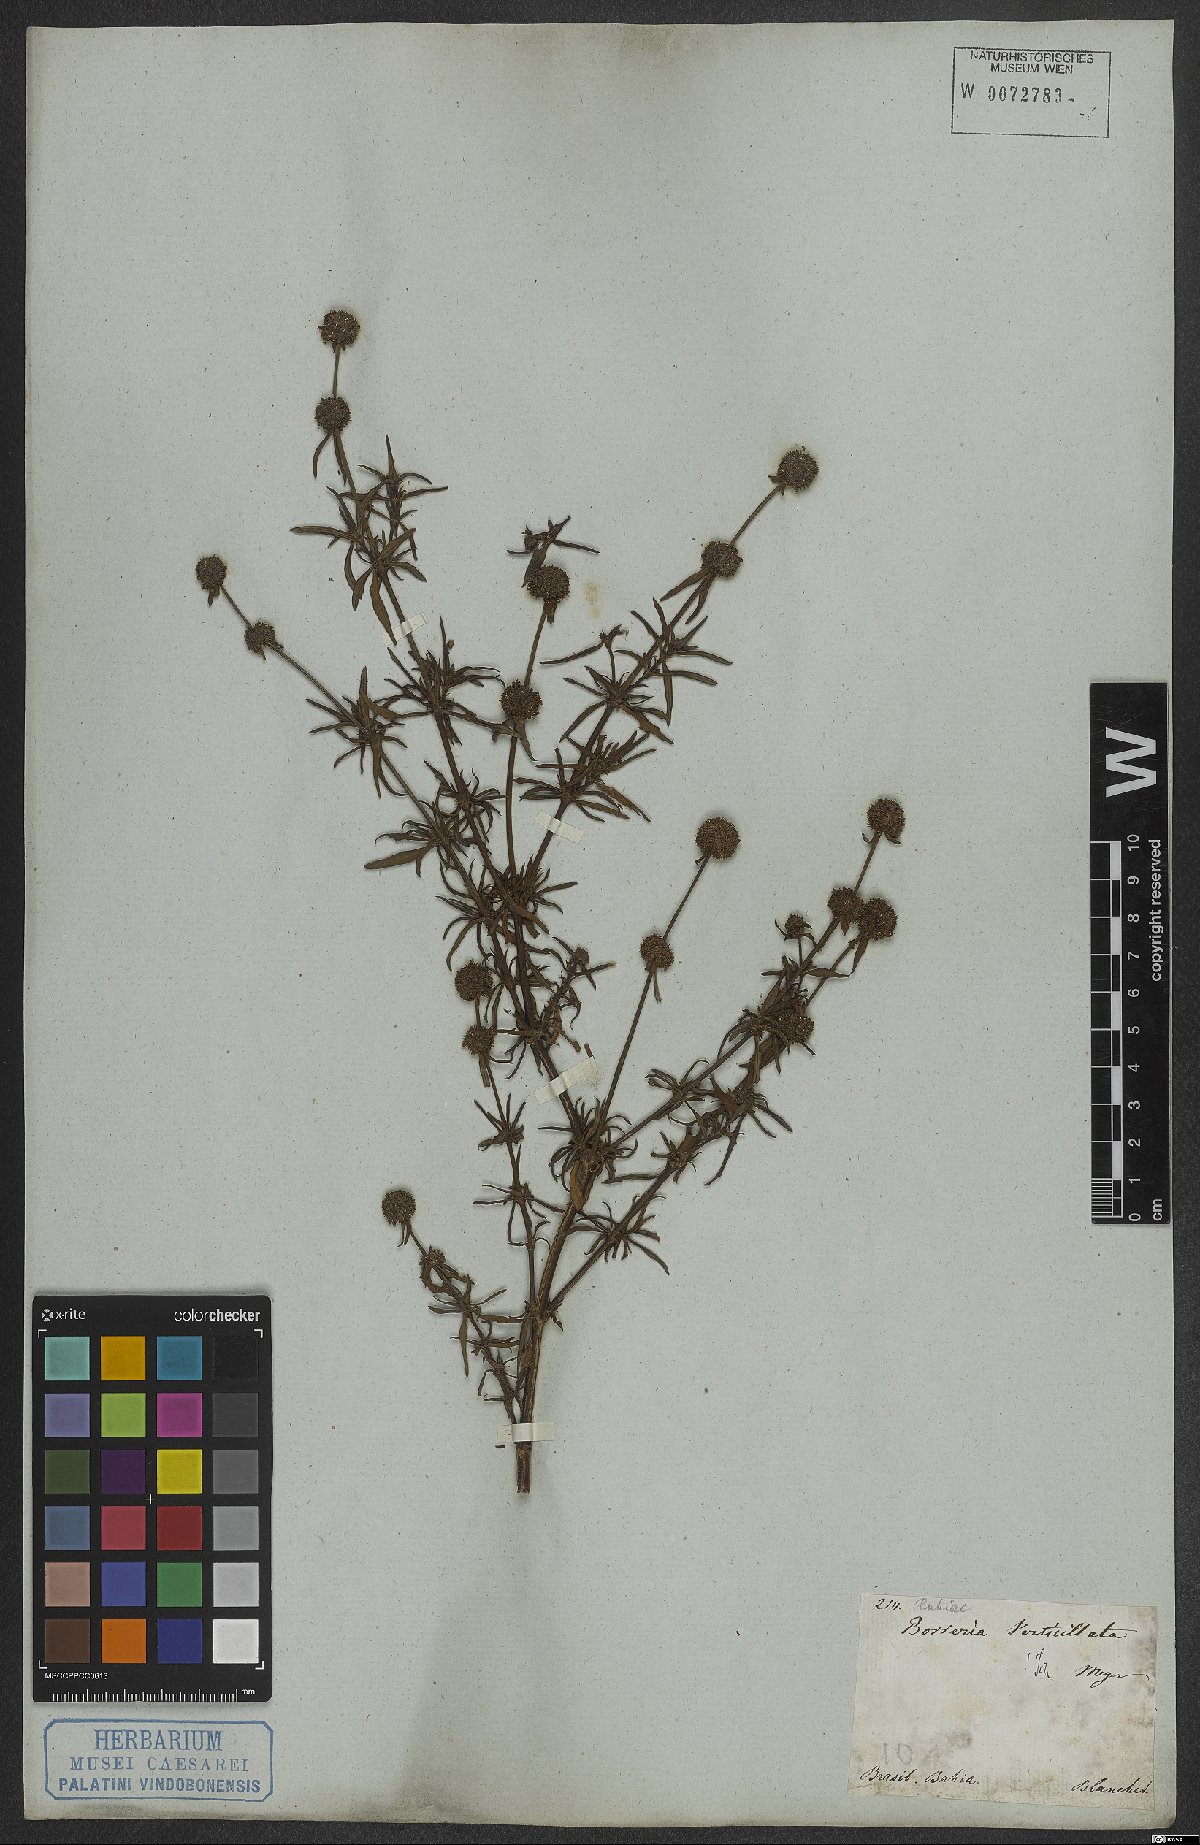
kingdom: Plantae
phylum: Tracheophyta
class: Magnoliopsida
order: Gentianales
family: Rubiaceae
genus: Spermacoce
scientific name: Spermacoce verticillata
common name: Shrubby false buttonweed
